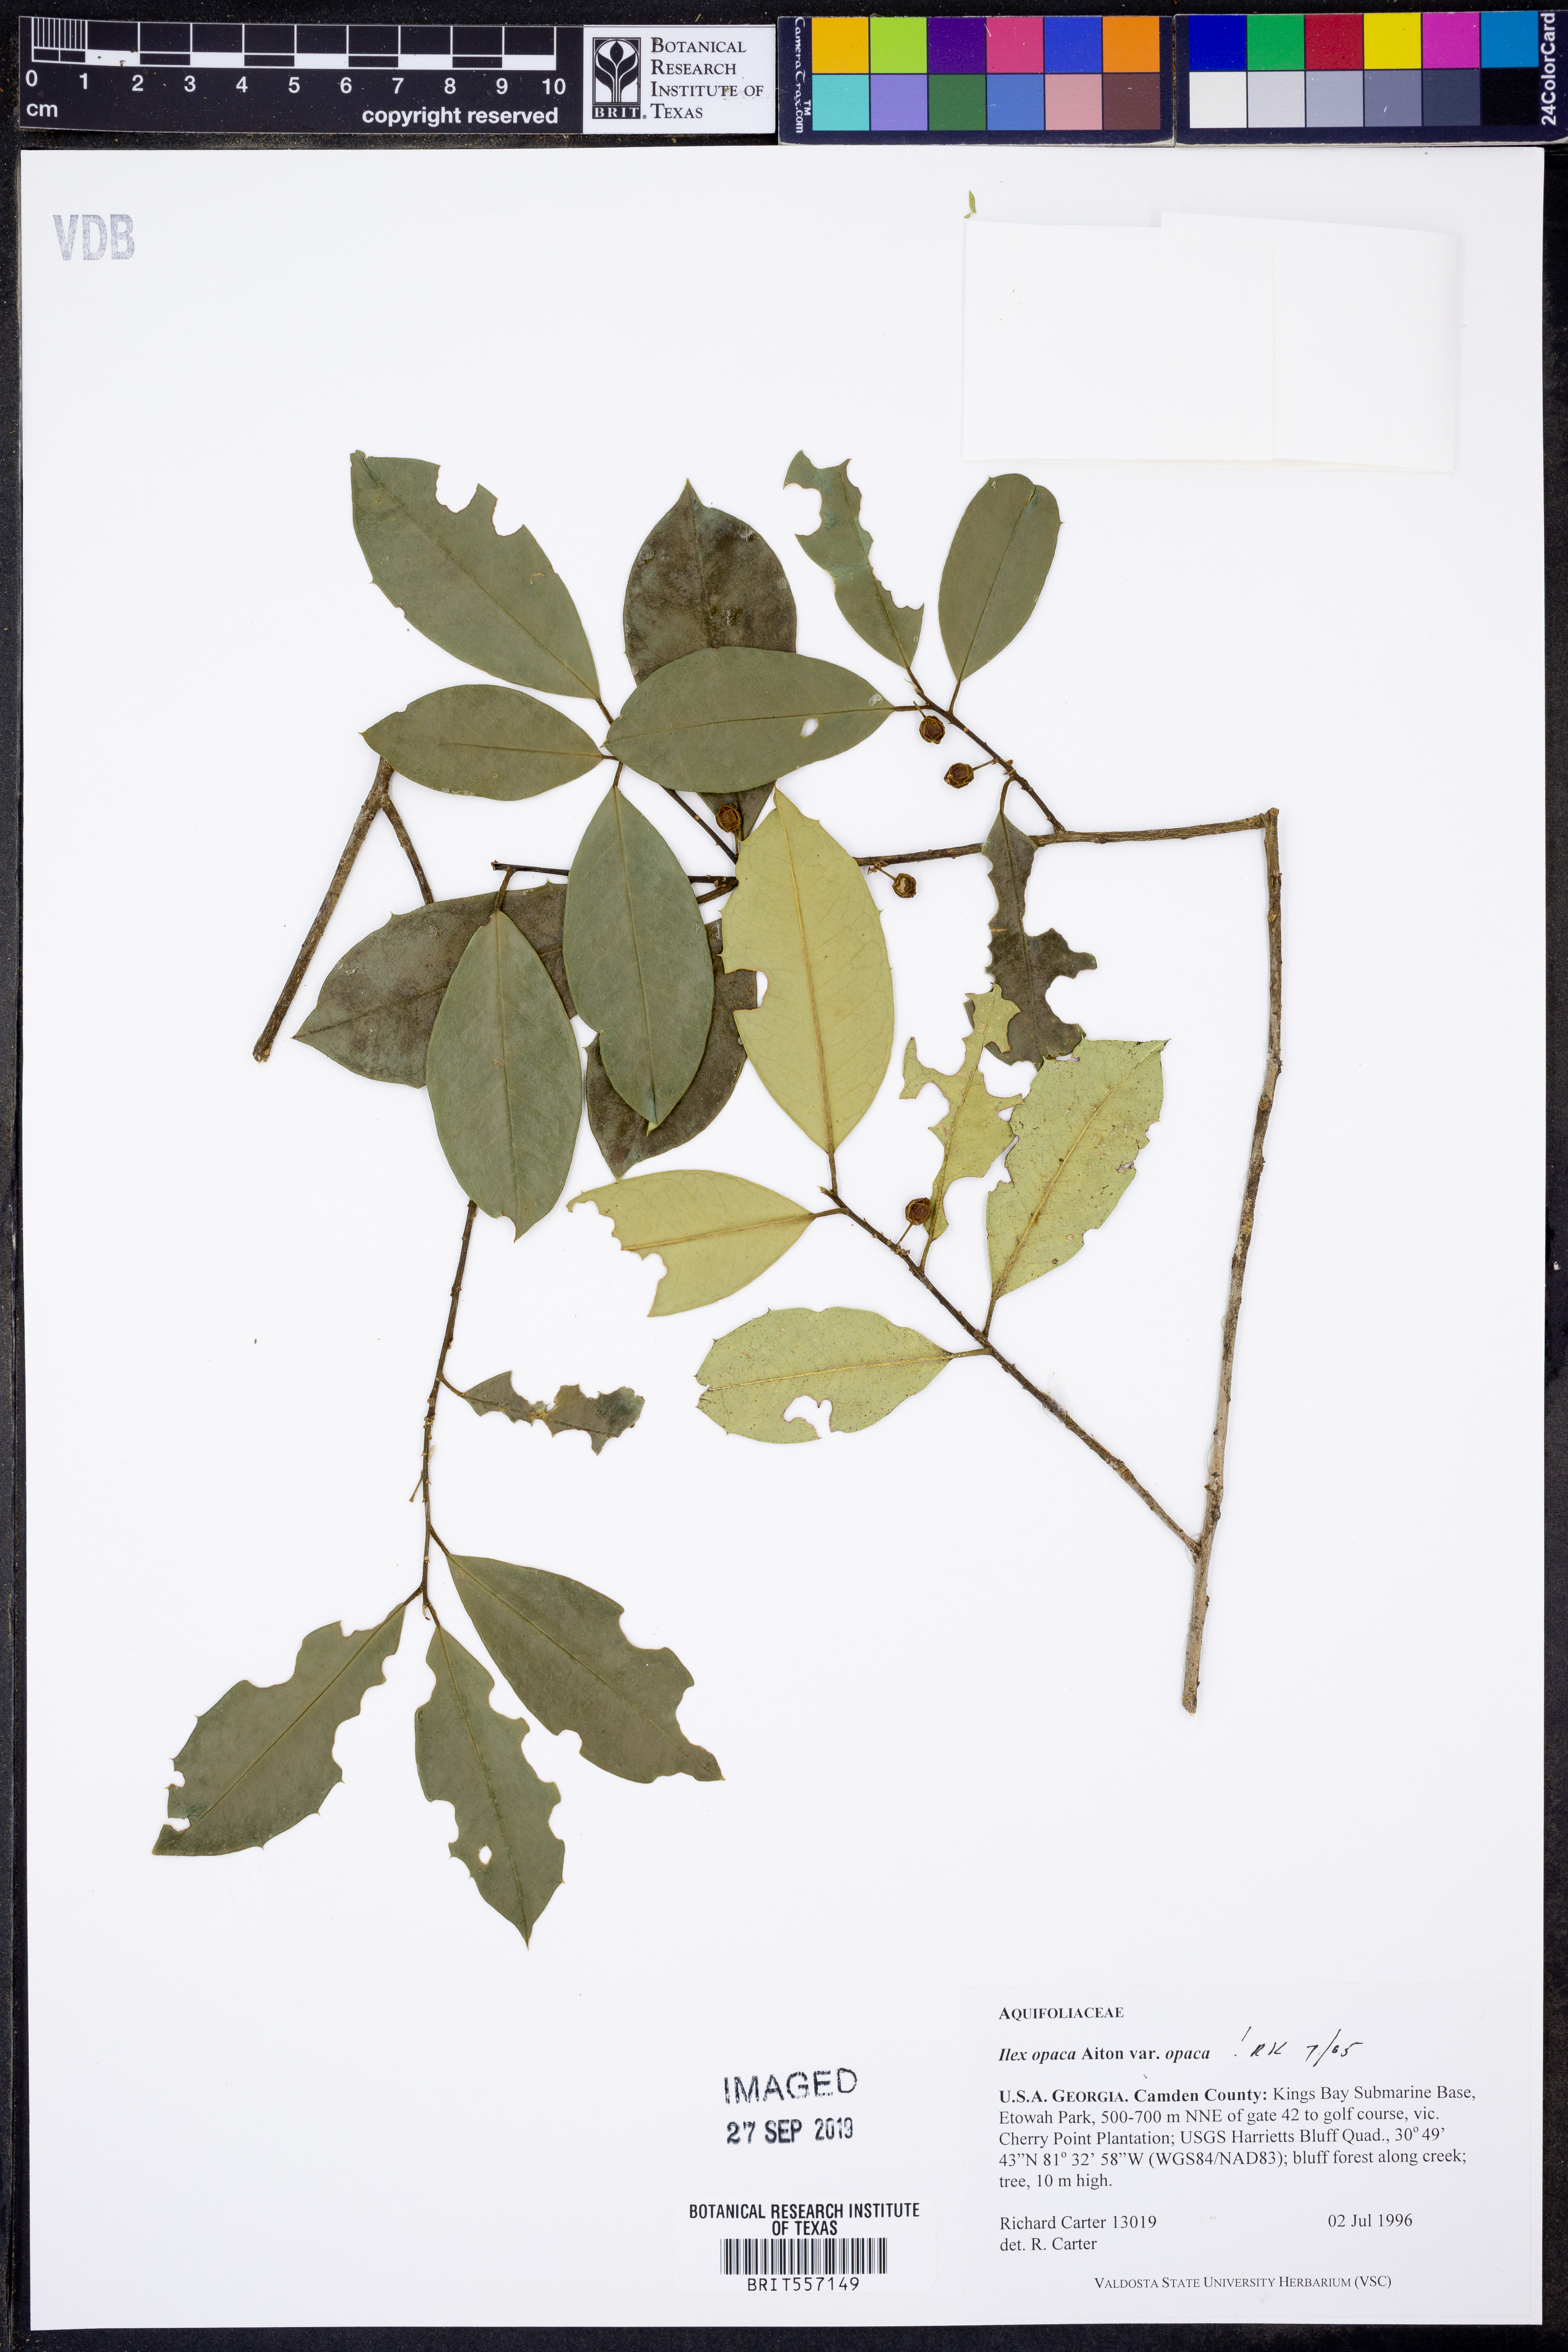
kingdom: Plantae
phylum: Tracheophyta
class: Magnoliopsida
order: Aquifoliales
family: Aquifoliaceae
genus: Ilex
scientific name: Ilex opaca
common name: American holly
